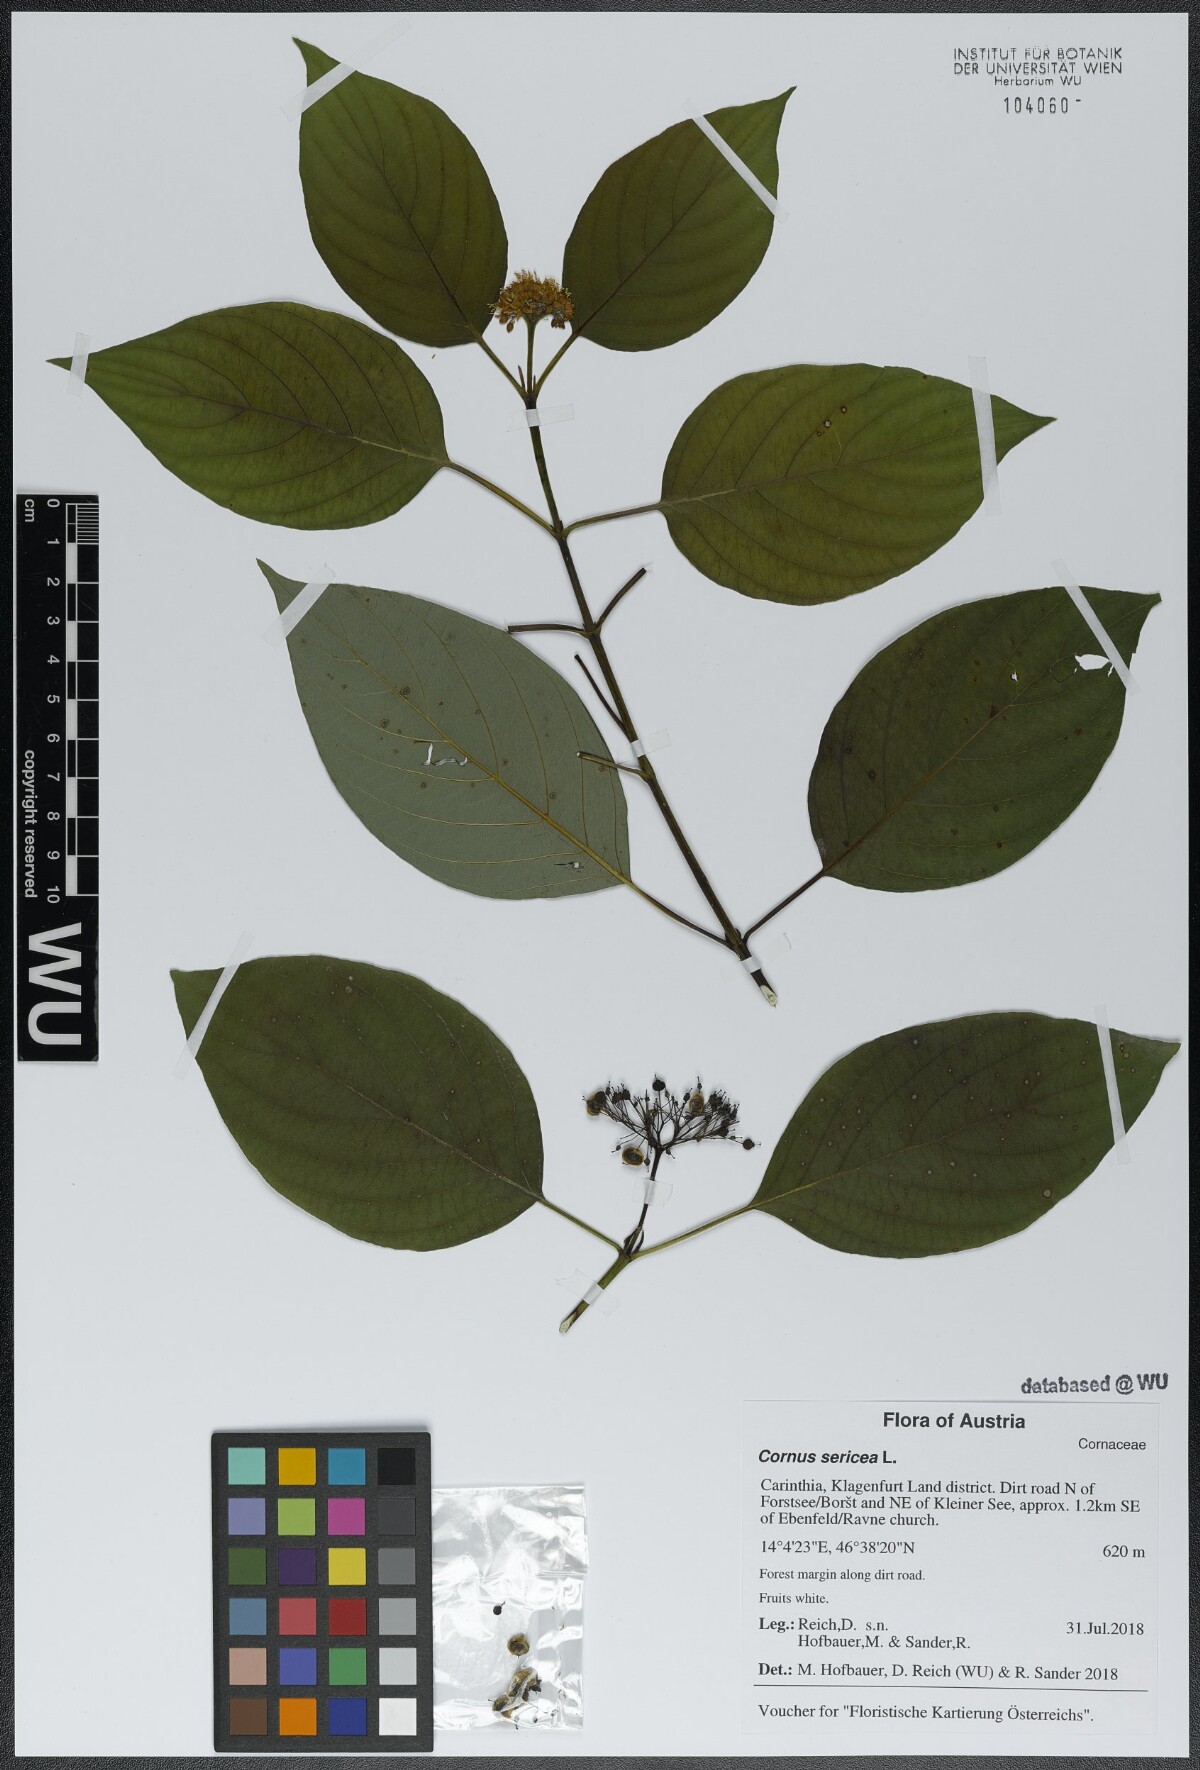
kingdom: Plantae
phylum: Tracheophyta
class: Magnoliopsida
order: Cornales
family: Cornaceae
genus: Cornus
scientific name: Cornus sericea
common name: Red-osier dogwood
